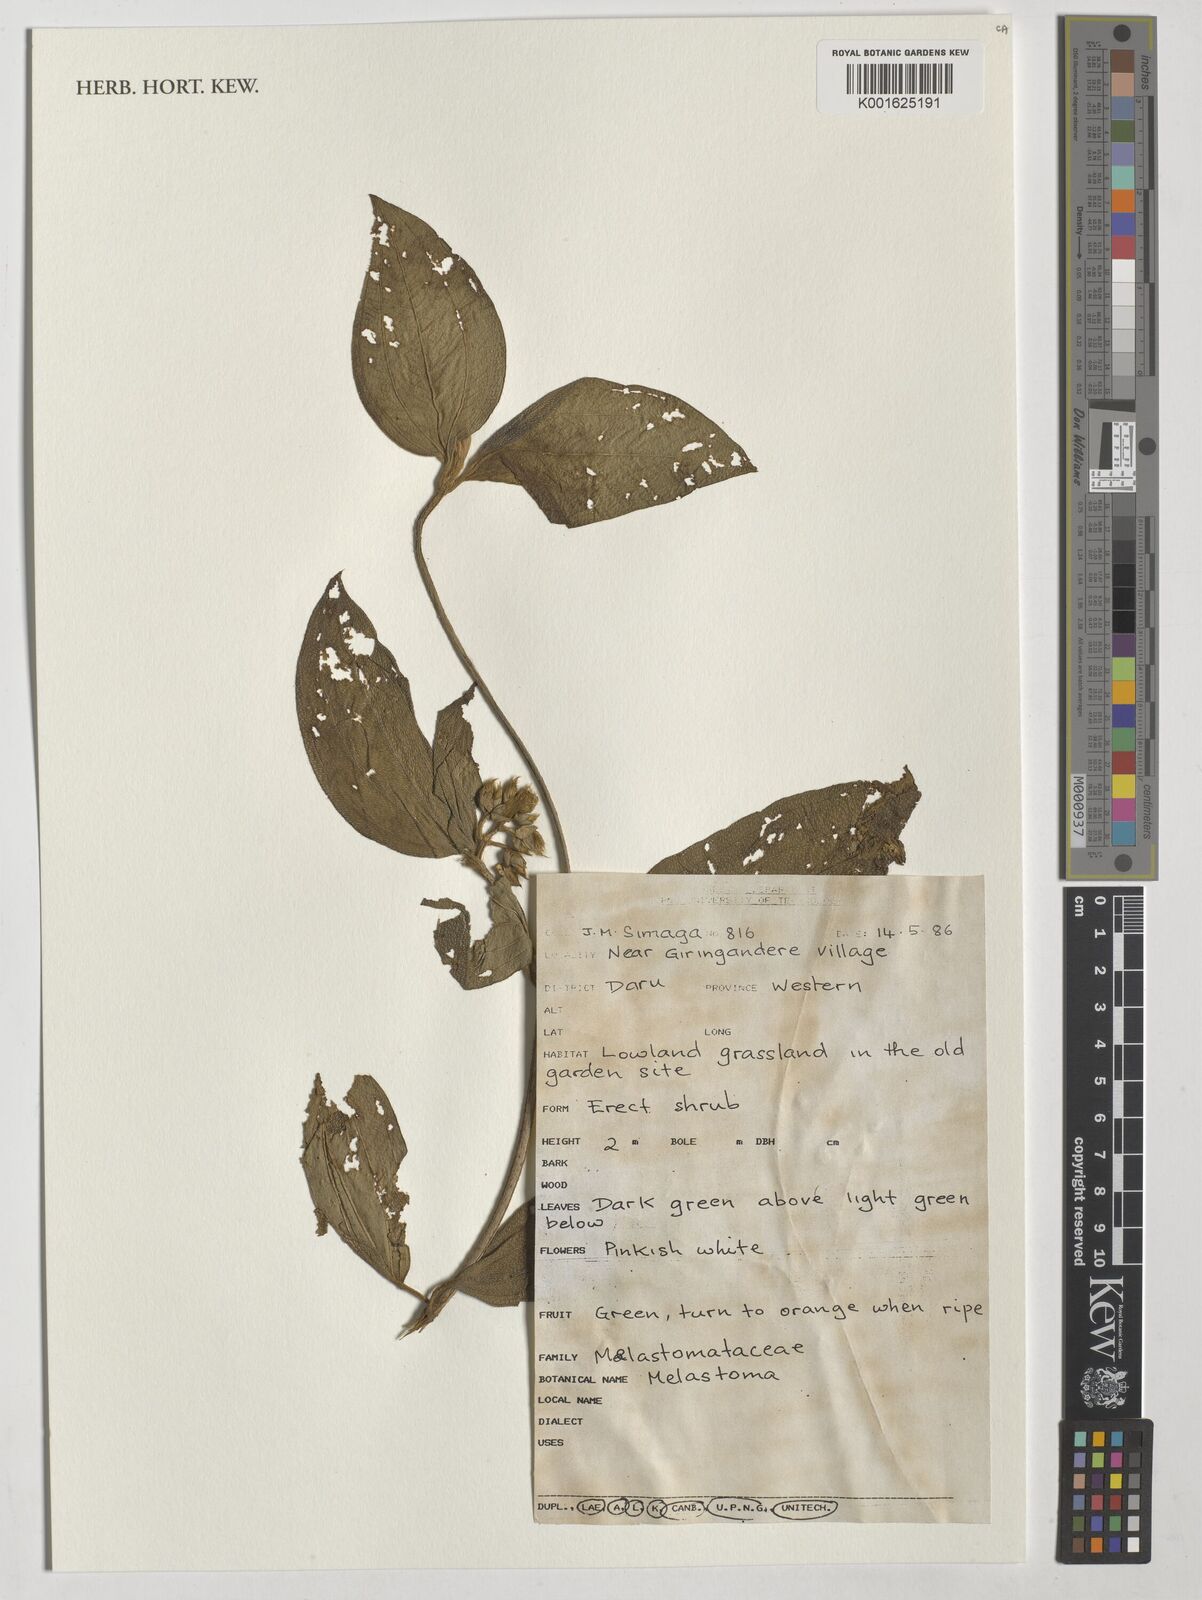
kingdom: Plantae
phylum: Tracheophyta
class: Magnoliopsida
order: Myrtales
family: Melastomataceae
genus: Melastoma
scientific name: Melastoma
